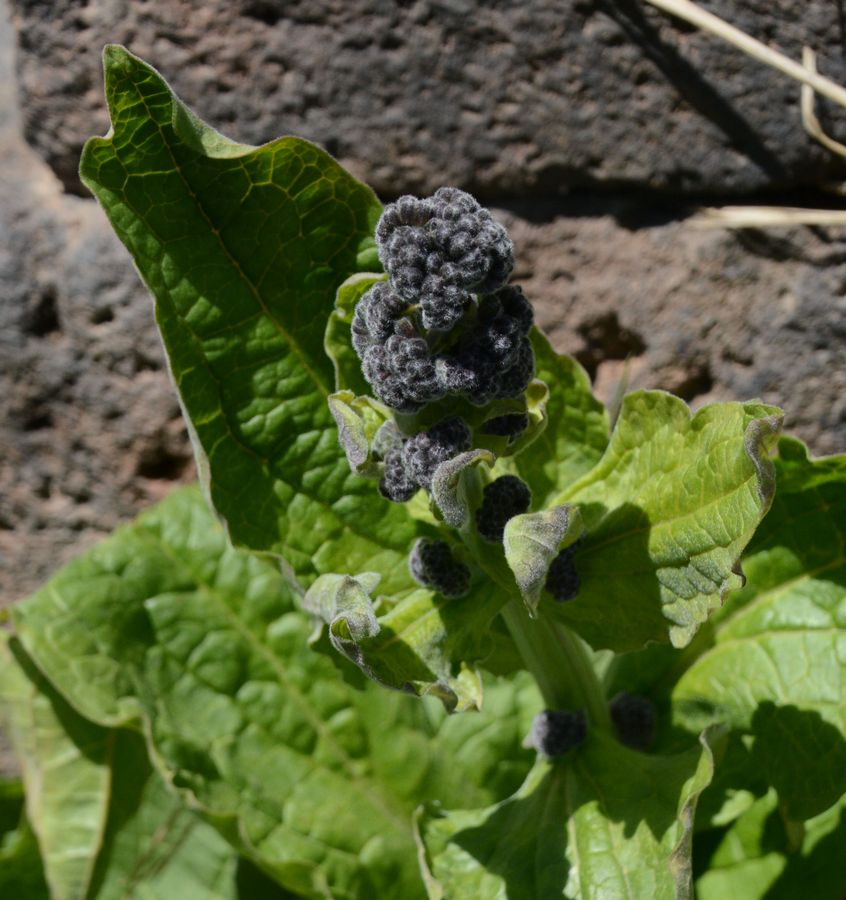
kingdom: Plantae
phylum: Tracheophyta
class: Magnoliopsida
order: Boraginales
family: Boraginaceae
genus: Rindera
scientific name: Rindera lanata
